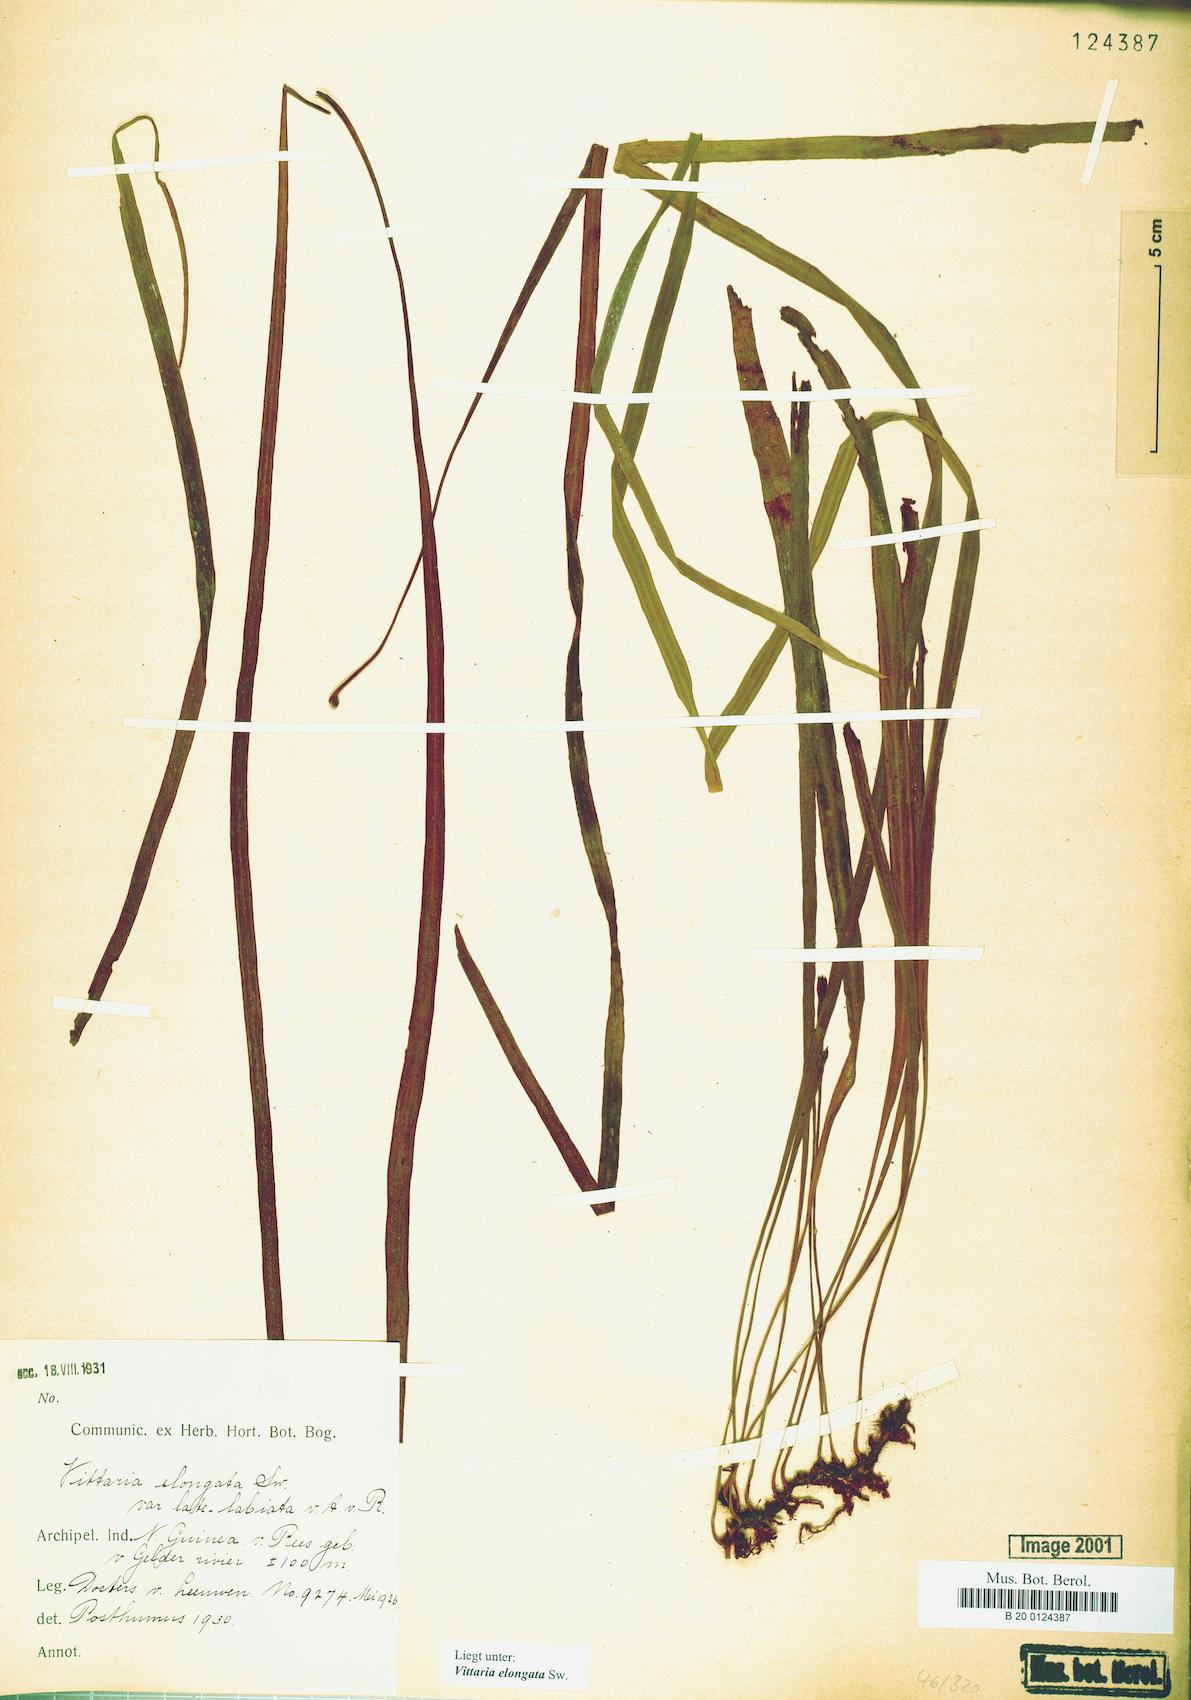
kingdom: Plantae
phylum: Tracheophyta
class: Polypodiopsida
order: Polypodiales
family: Pteridaceae
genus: Haplopteris
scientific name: Haplopteris elongata
